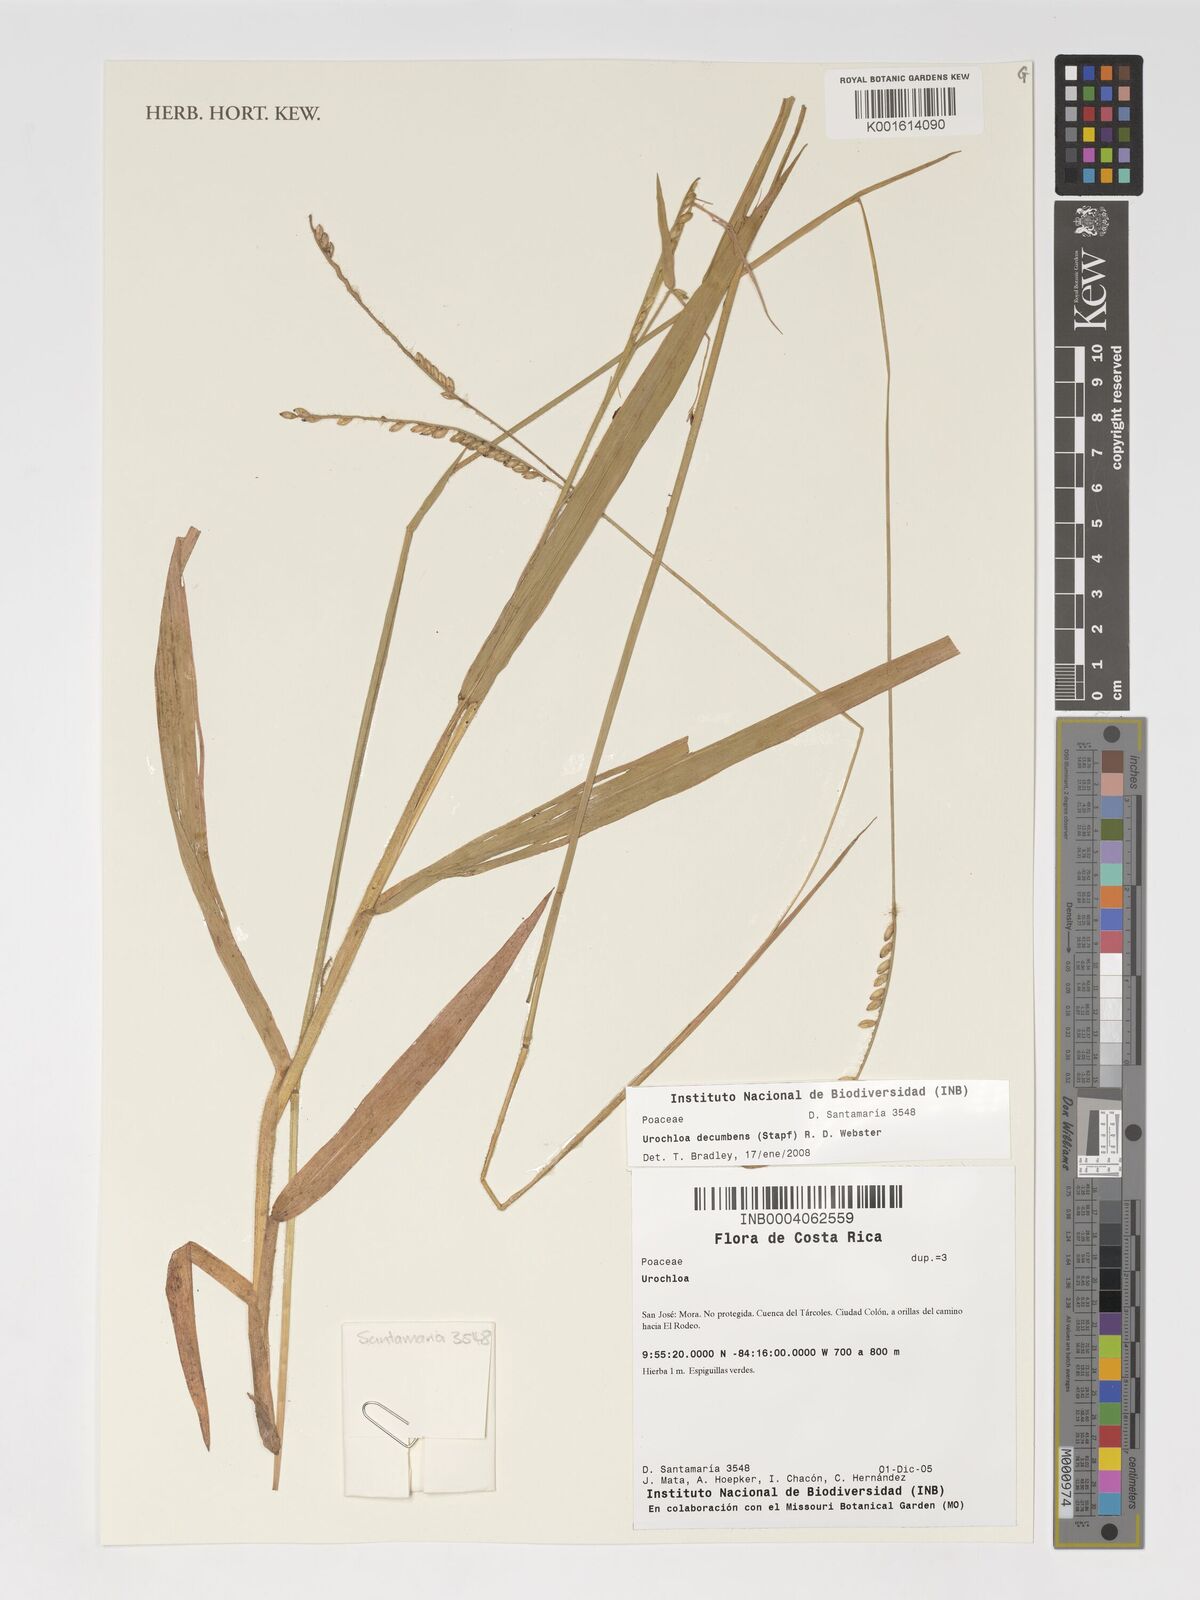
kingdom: Plantae
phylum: Tracheophyta
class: Liliopsida
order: Poales
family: Poaceae
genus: Urochloa
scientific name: Urochloa eminii
